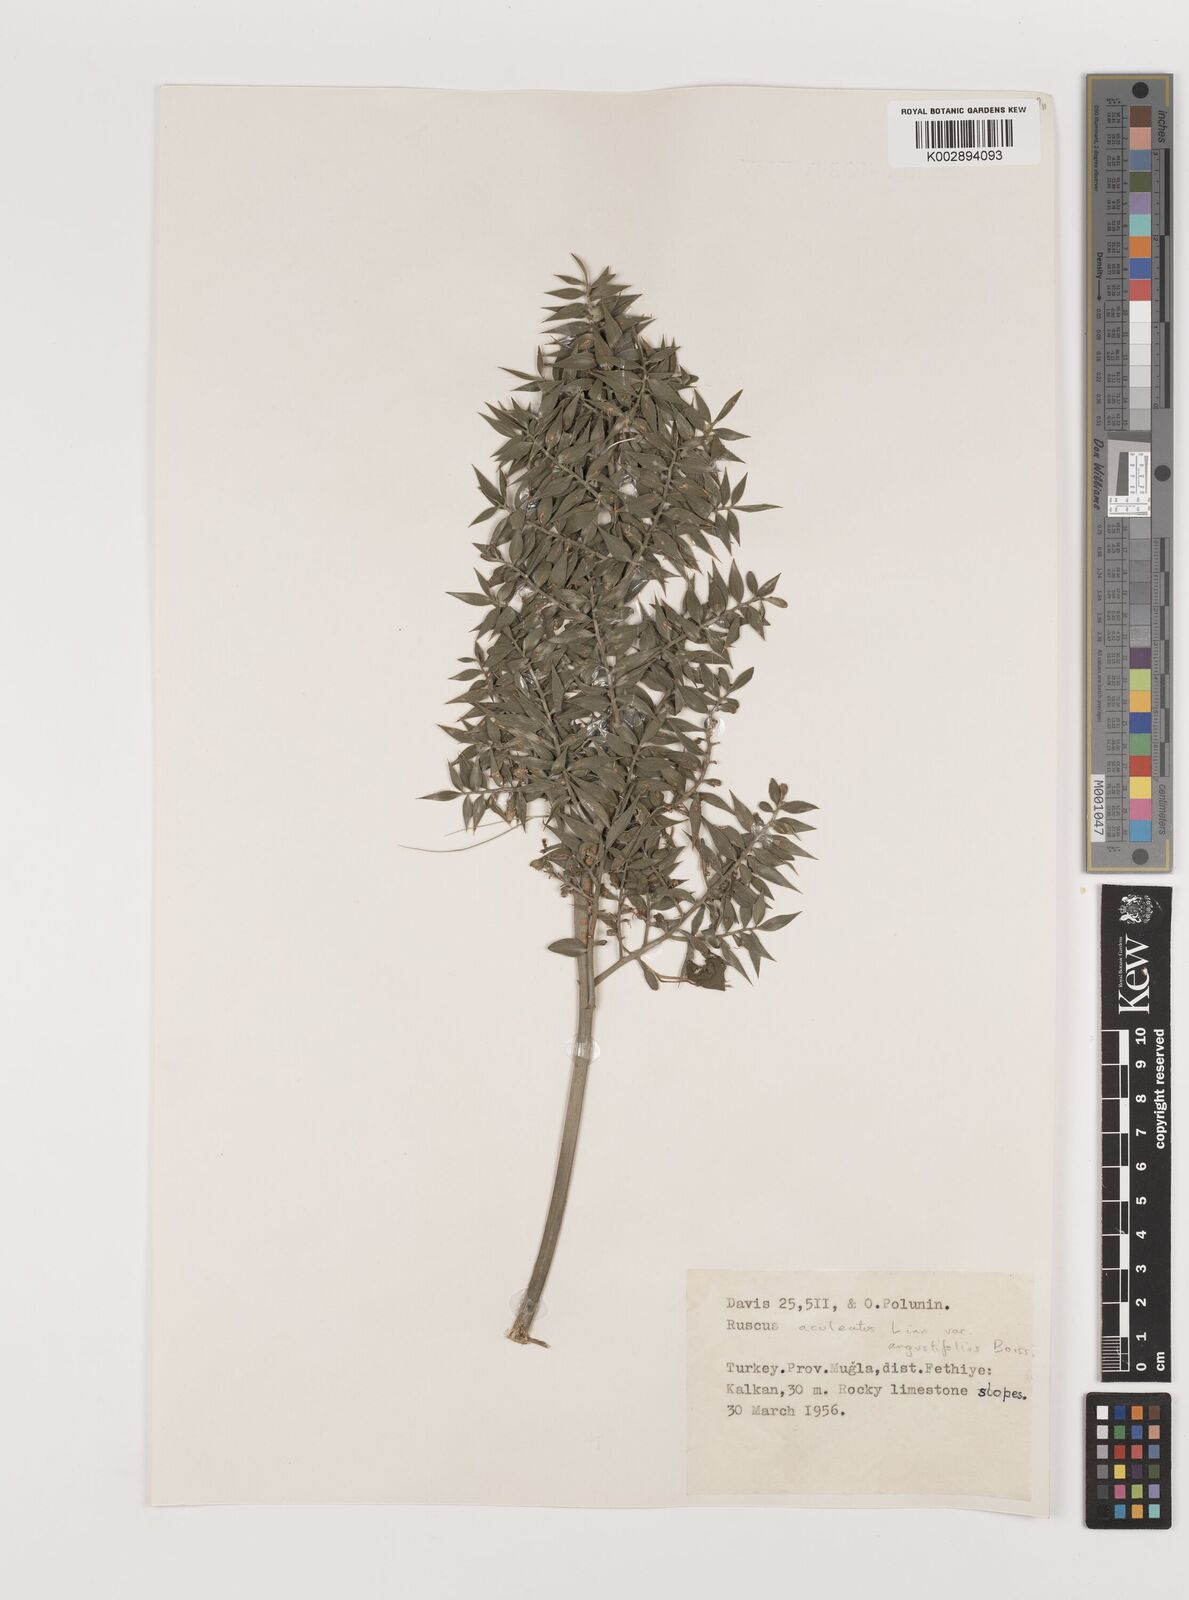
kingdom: Plantae
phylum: Tracheophyta
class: Liliopsida
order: Asparagales
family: Asparagaceae
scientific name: Asparagaceae
